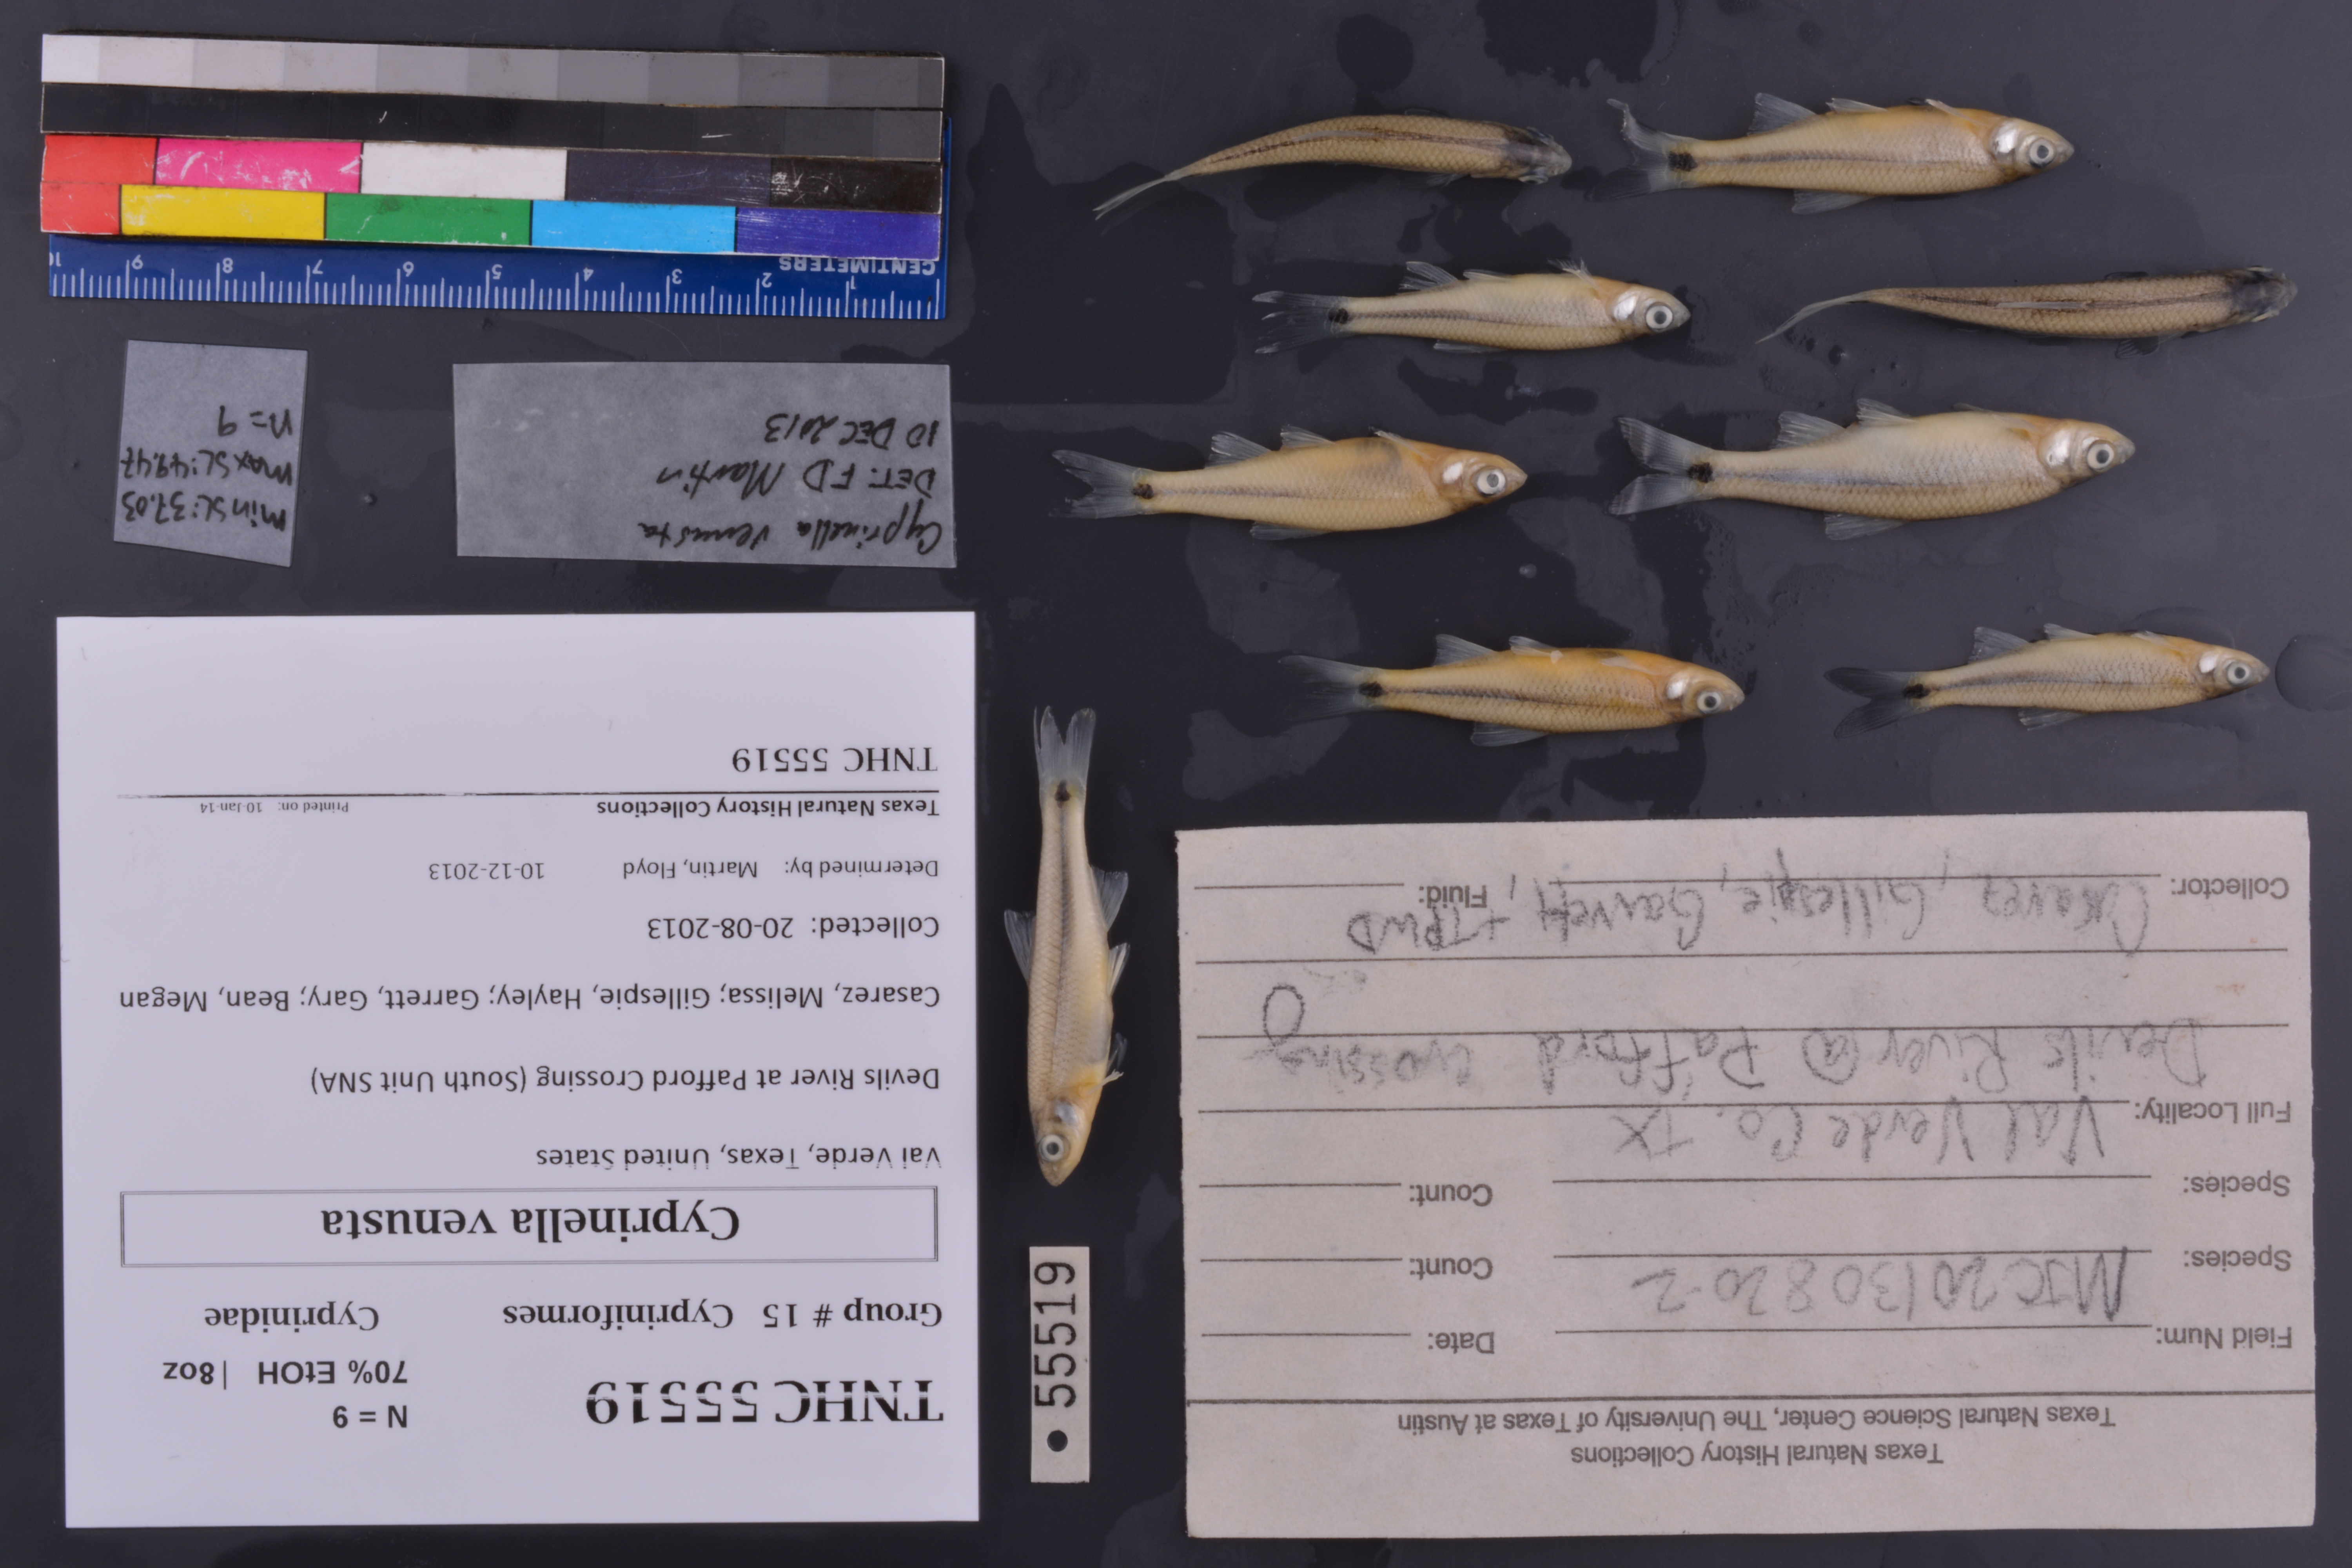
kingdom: Animalia
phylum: Chordata
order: Cypriniformes
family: Cyprinidae
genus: Cyprinella
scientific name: Cyprinella venusta
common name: Blacktail shiner
